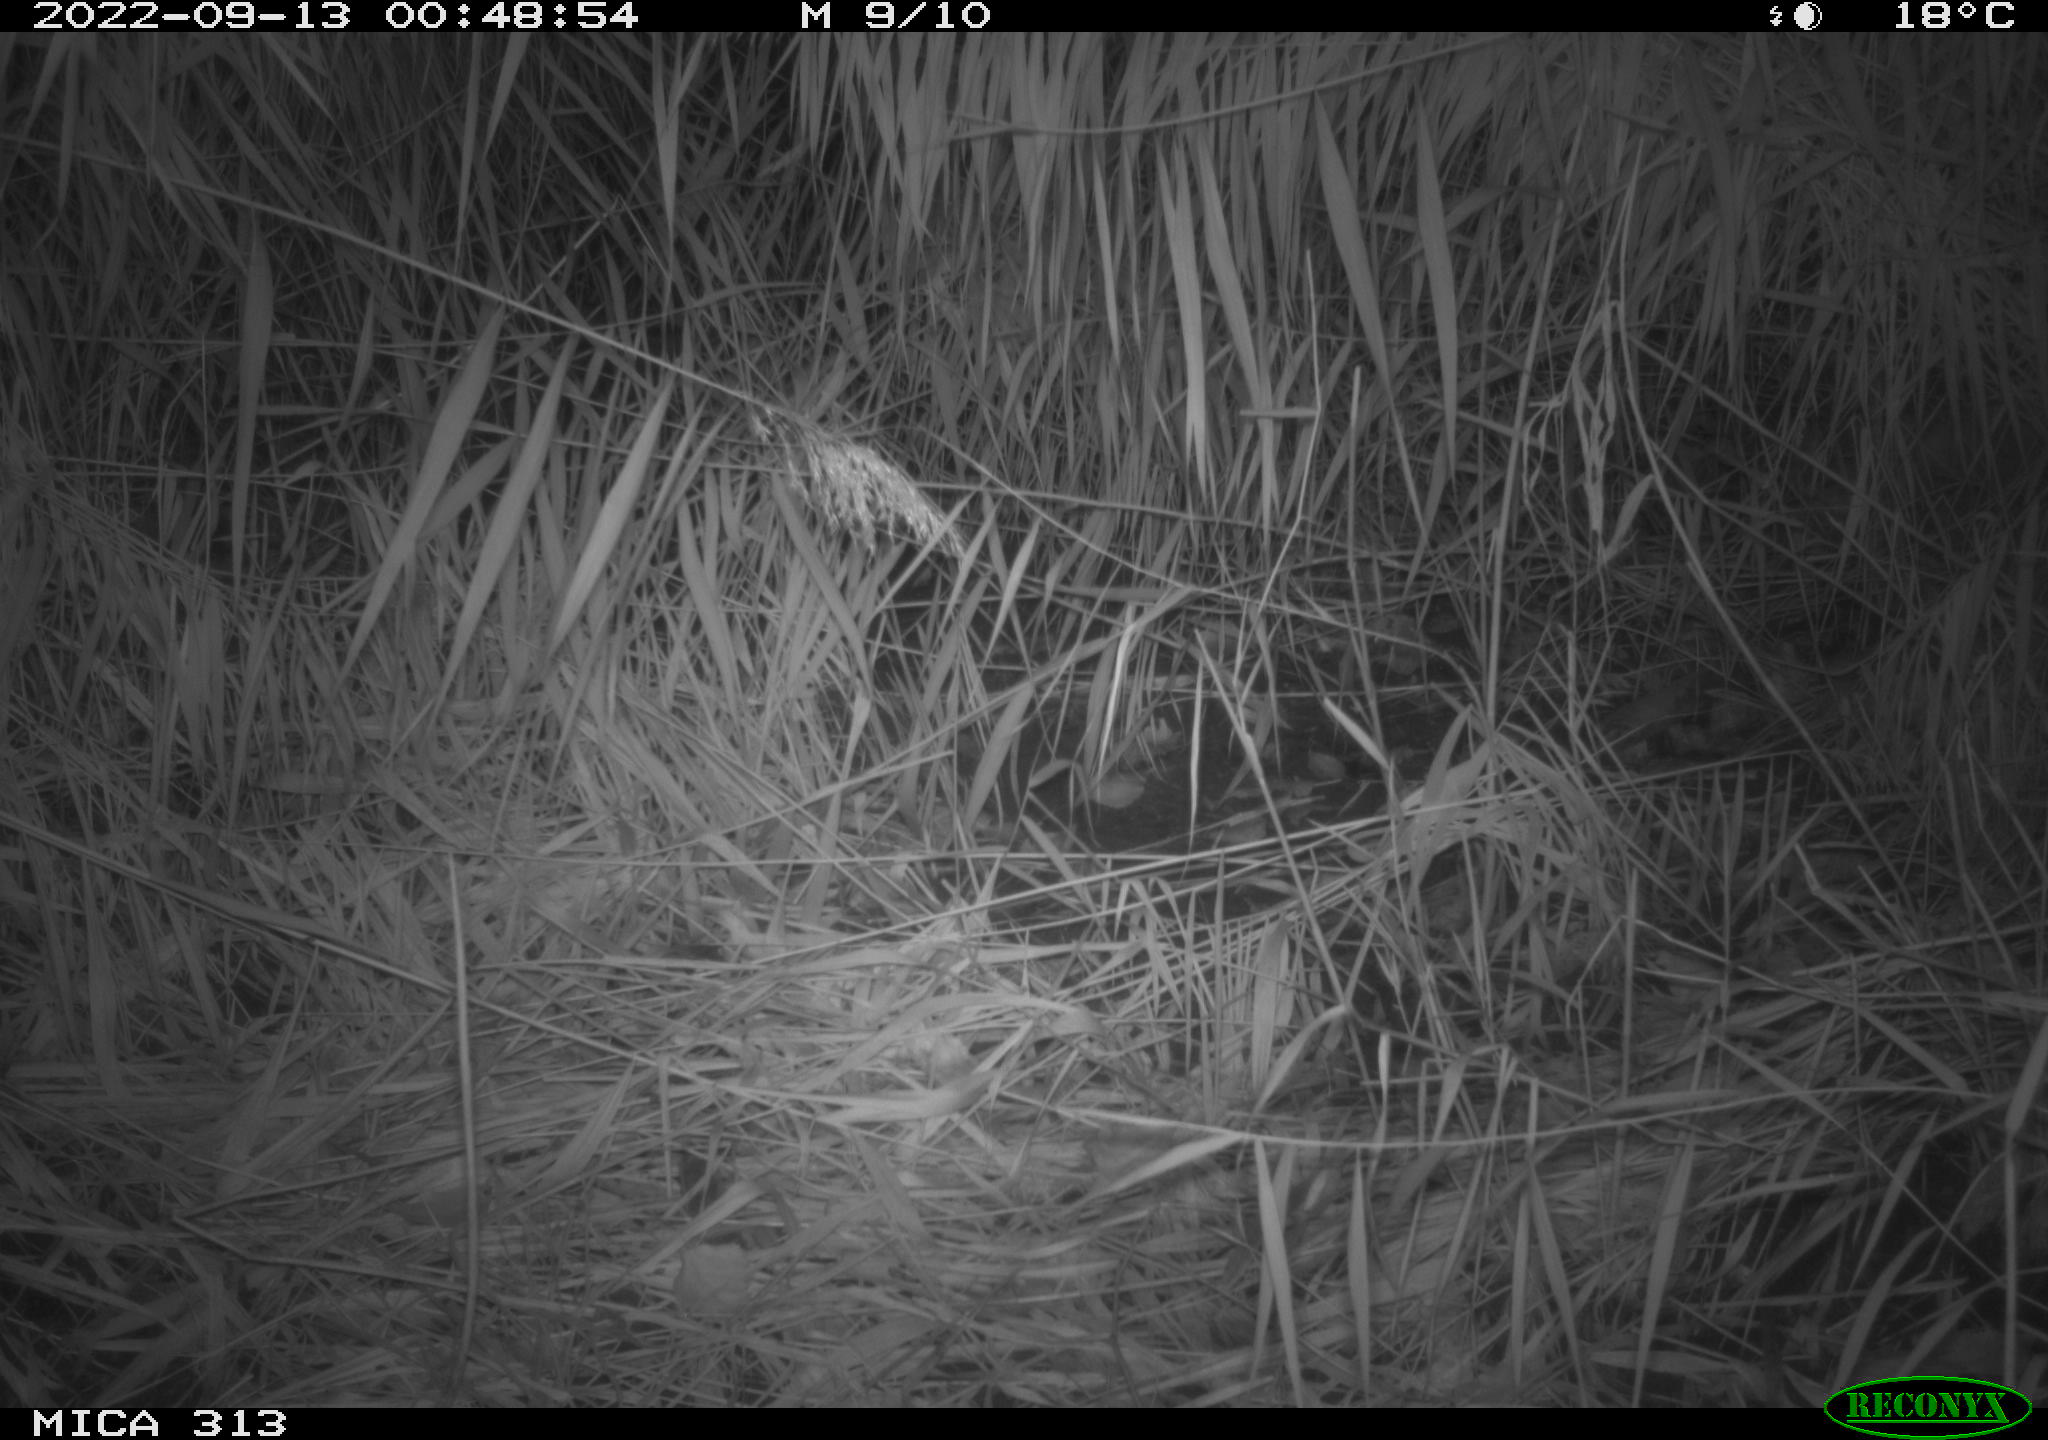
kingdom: Animalia
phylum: Chordata
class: Mammalia
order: Rodentia
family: Muridae
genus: Rattus
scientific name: Rattus norvegicus
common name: Brown rat
